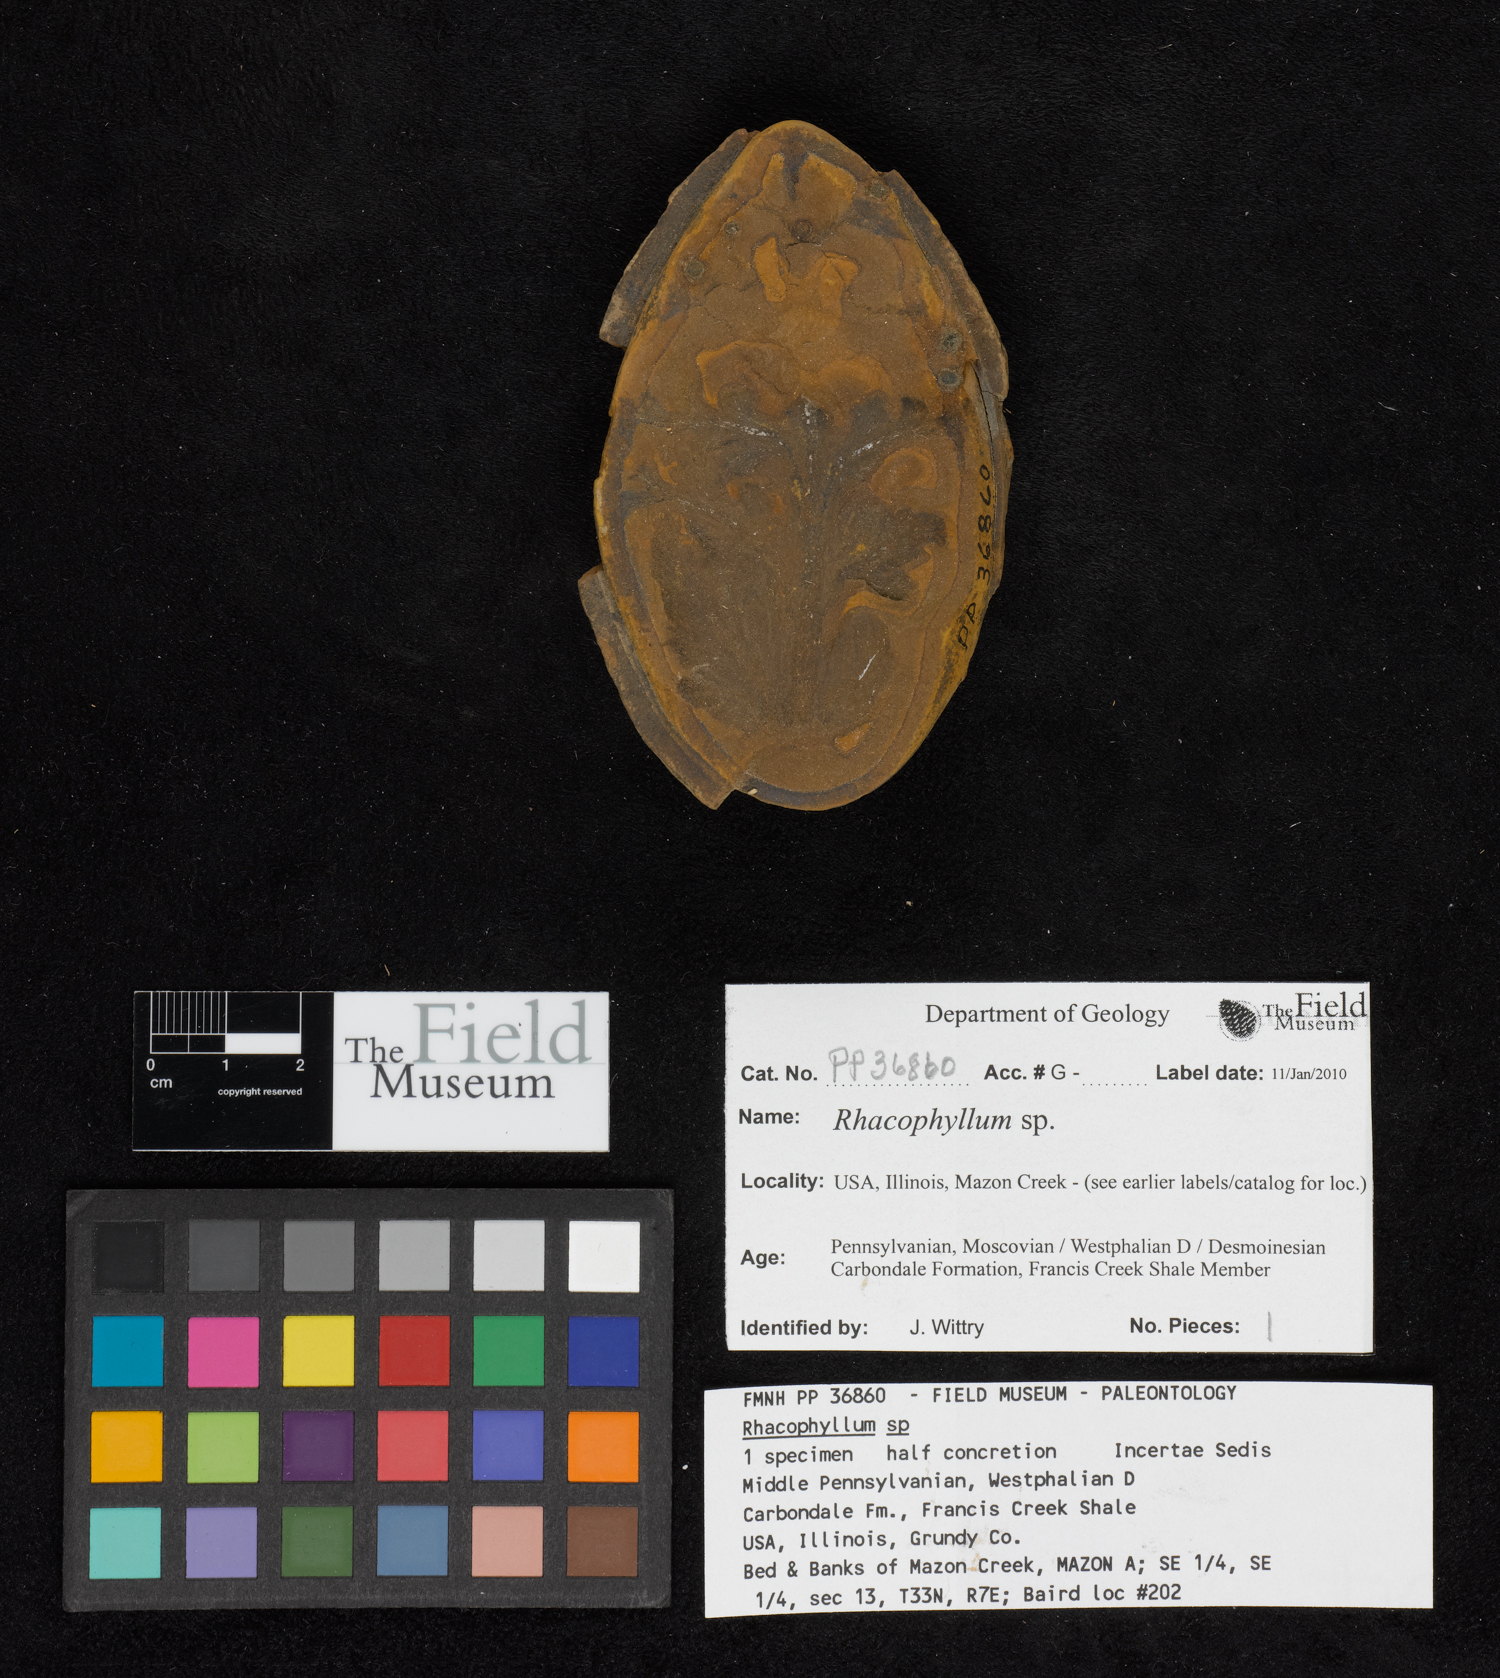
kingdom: Plantae
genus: Rhacophyllum
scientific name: Rhacophyllum
